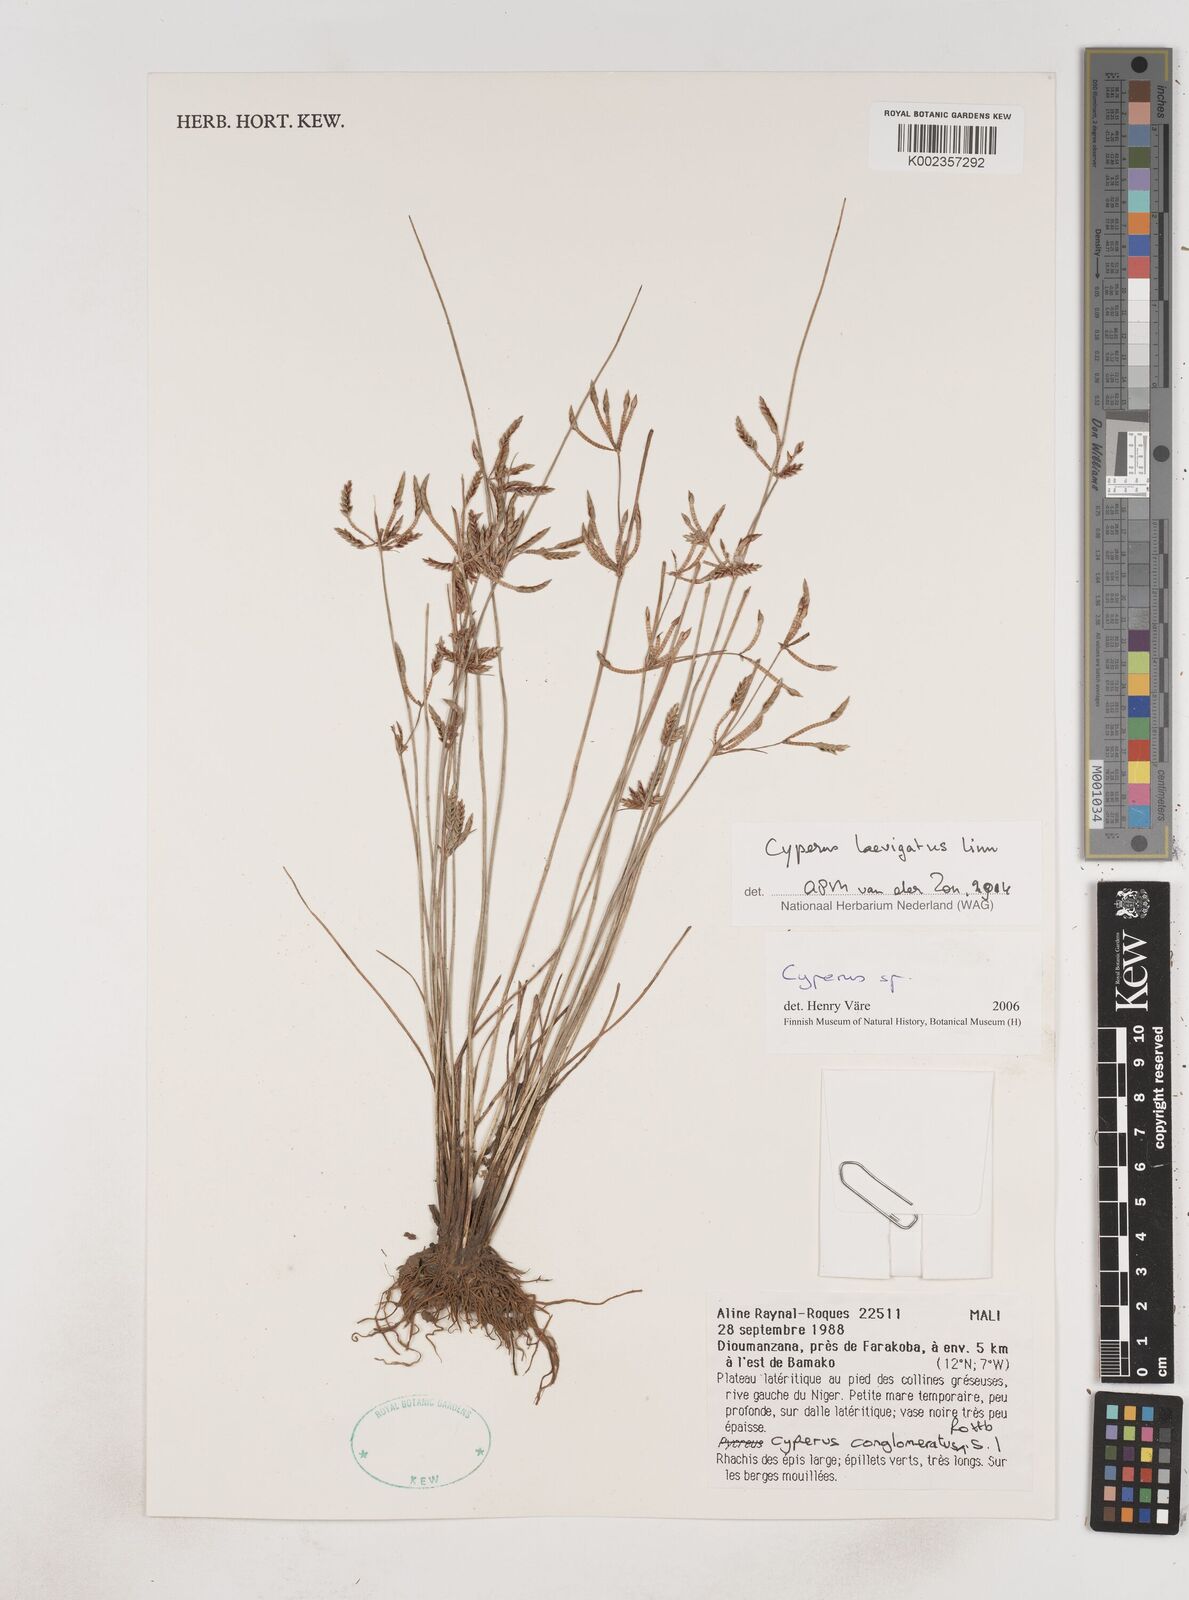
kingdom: Plantae
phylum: Tracheophyta
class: Liliopsida
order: Poales
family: Cyperaceae
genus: Cyperus
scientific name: Cyperus
